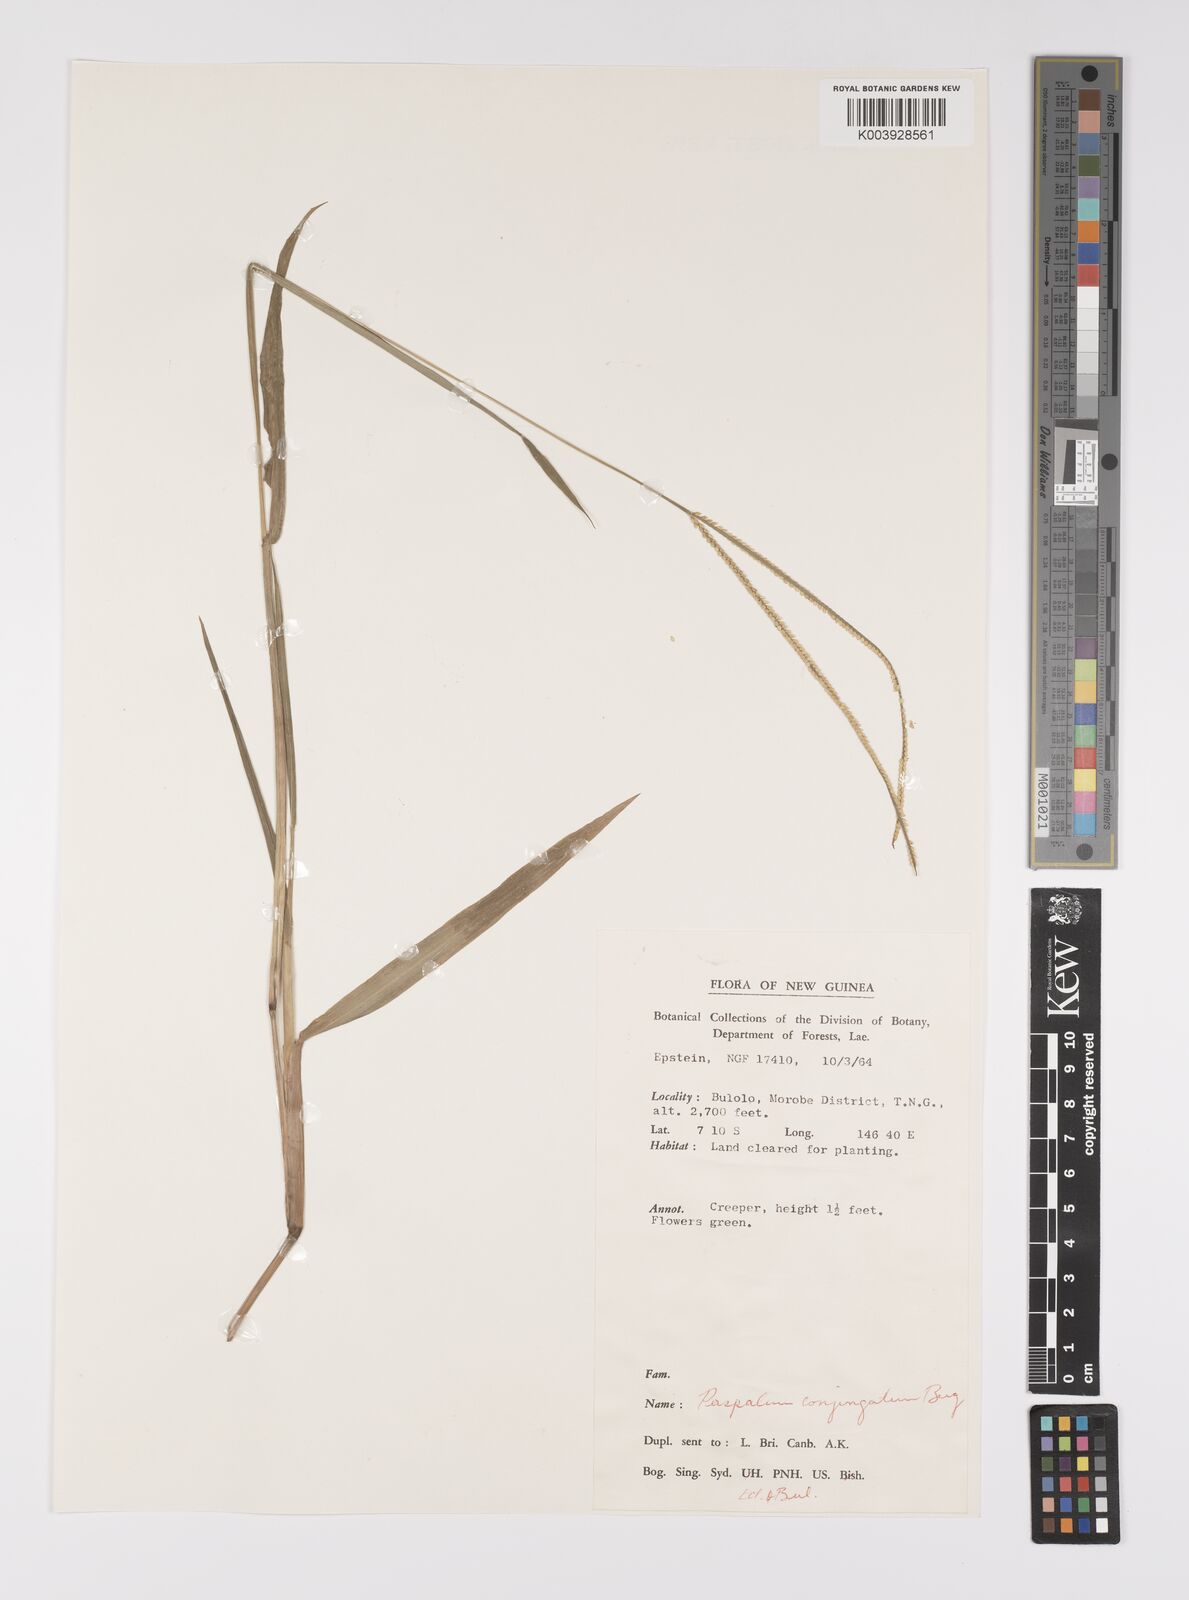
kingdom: Plantae
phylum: Tracheophyta
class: Liliopsida
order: Poales
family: Poaceae
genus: Paspalum
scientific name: Paspalum conjugatum
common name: Hilograss
